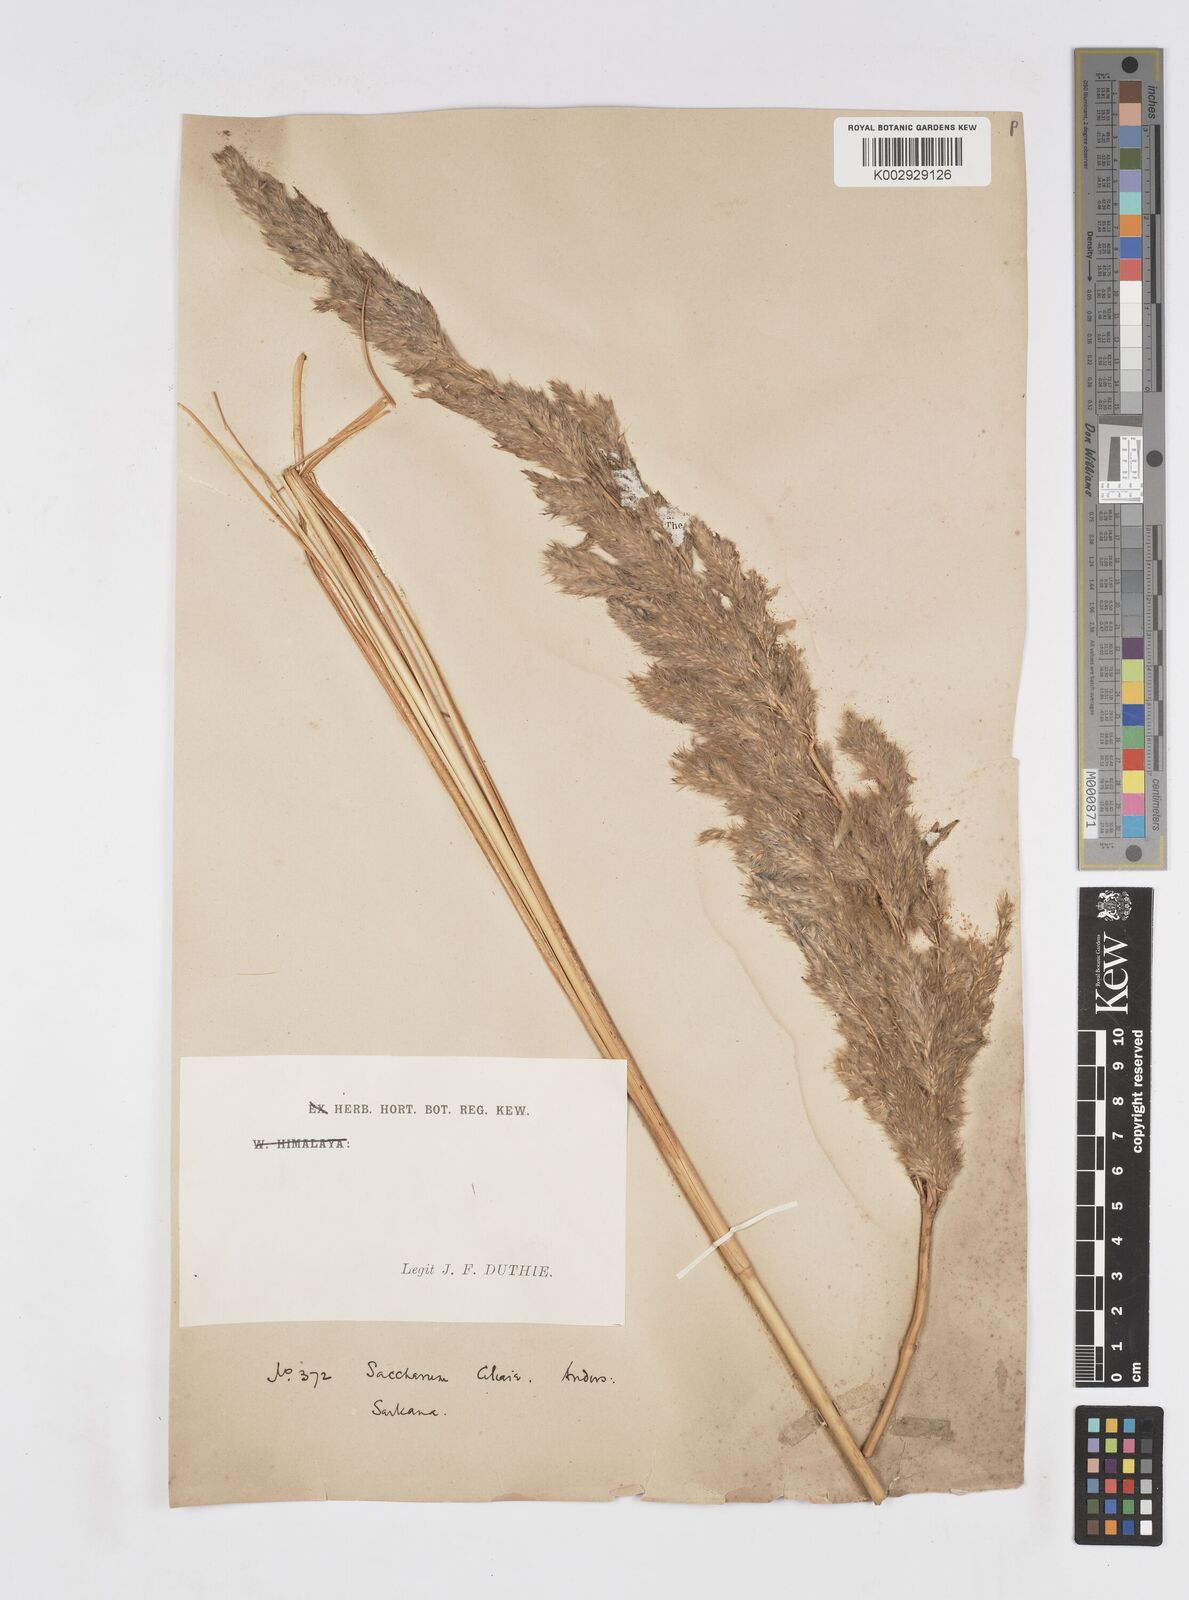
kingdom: Plantae
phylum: Tracheophyta
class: Liliopsida
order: Poales
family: Poaceae
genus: Tripidium
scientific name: Tripidium bengalense
